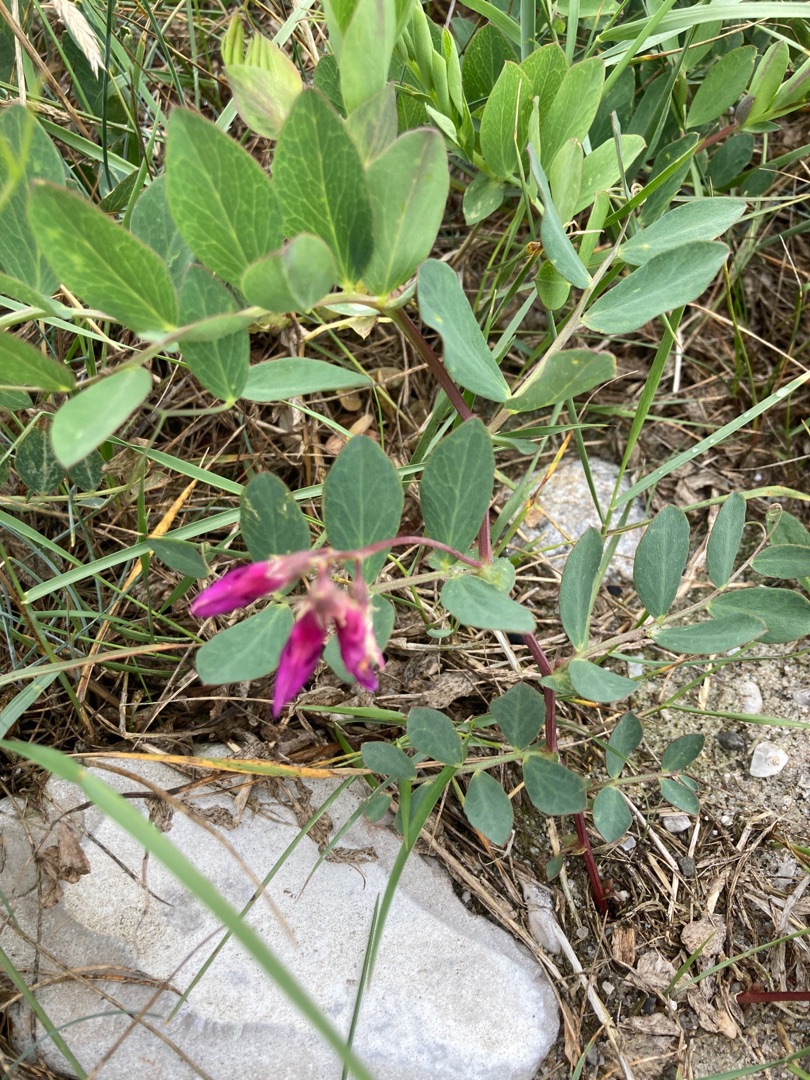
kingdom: Plantae
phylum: Tracheophyta
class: Magnoliopsida
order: Fabales
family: Fabaceae
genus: Lathyrus
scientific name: Lathyrus japonicus
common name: Strand-fladbælg
